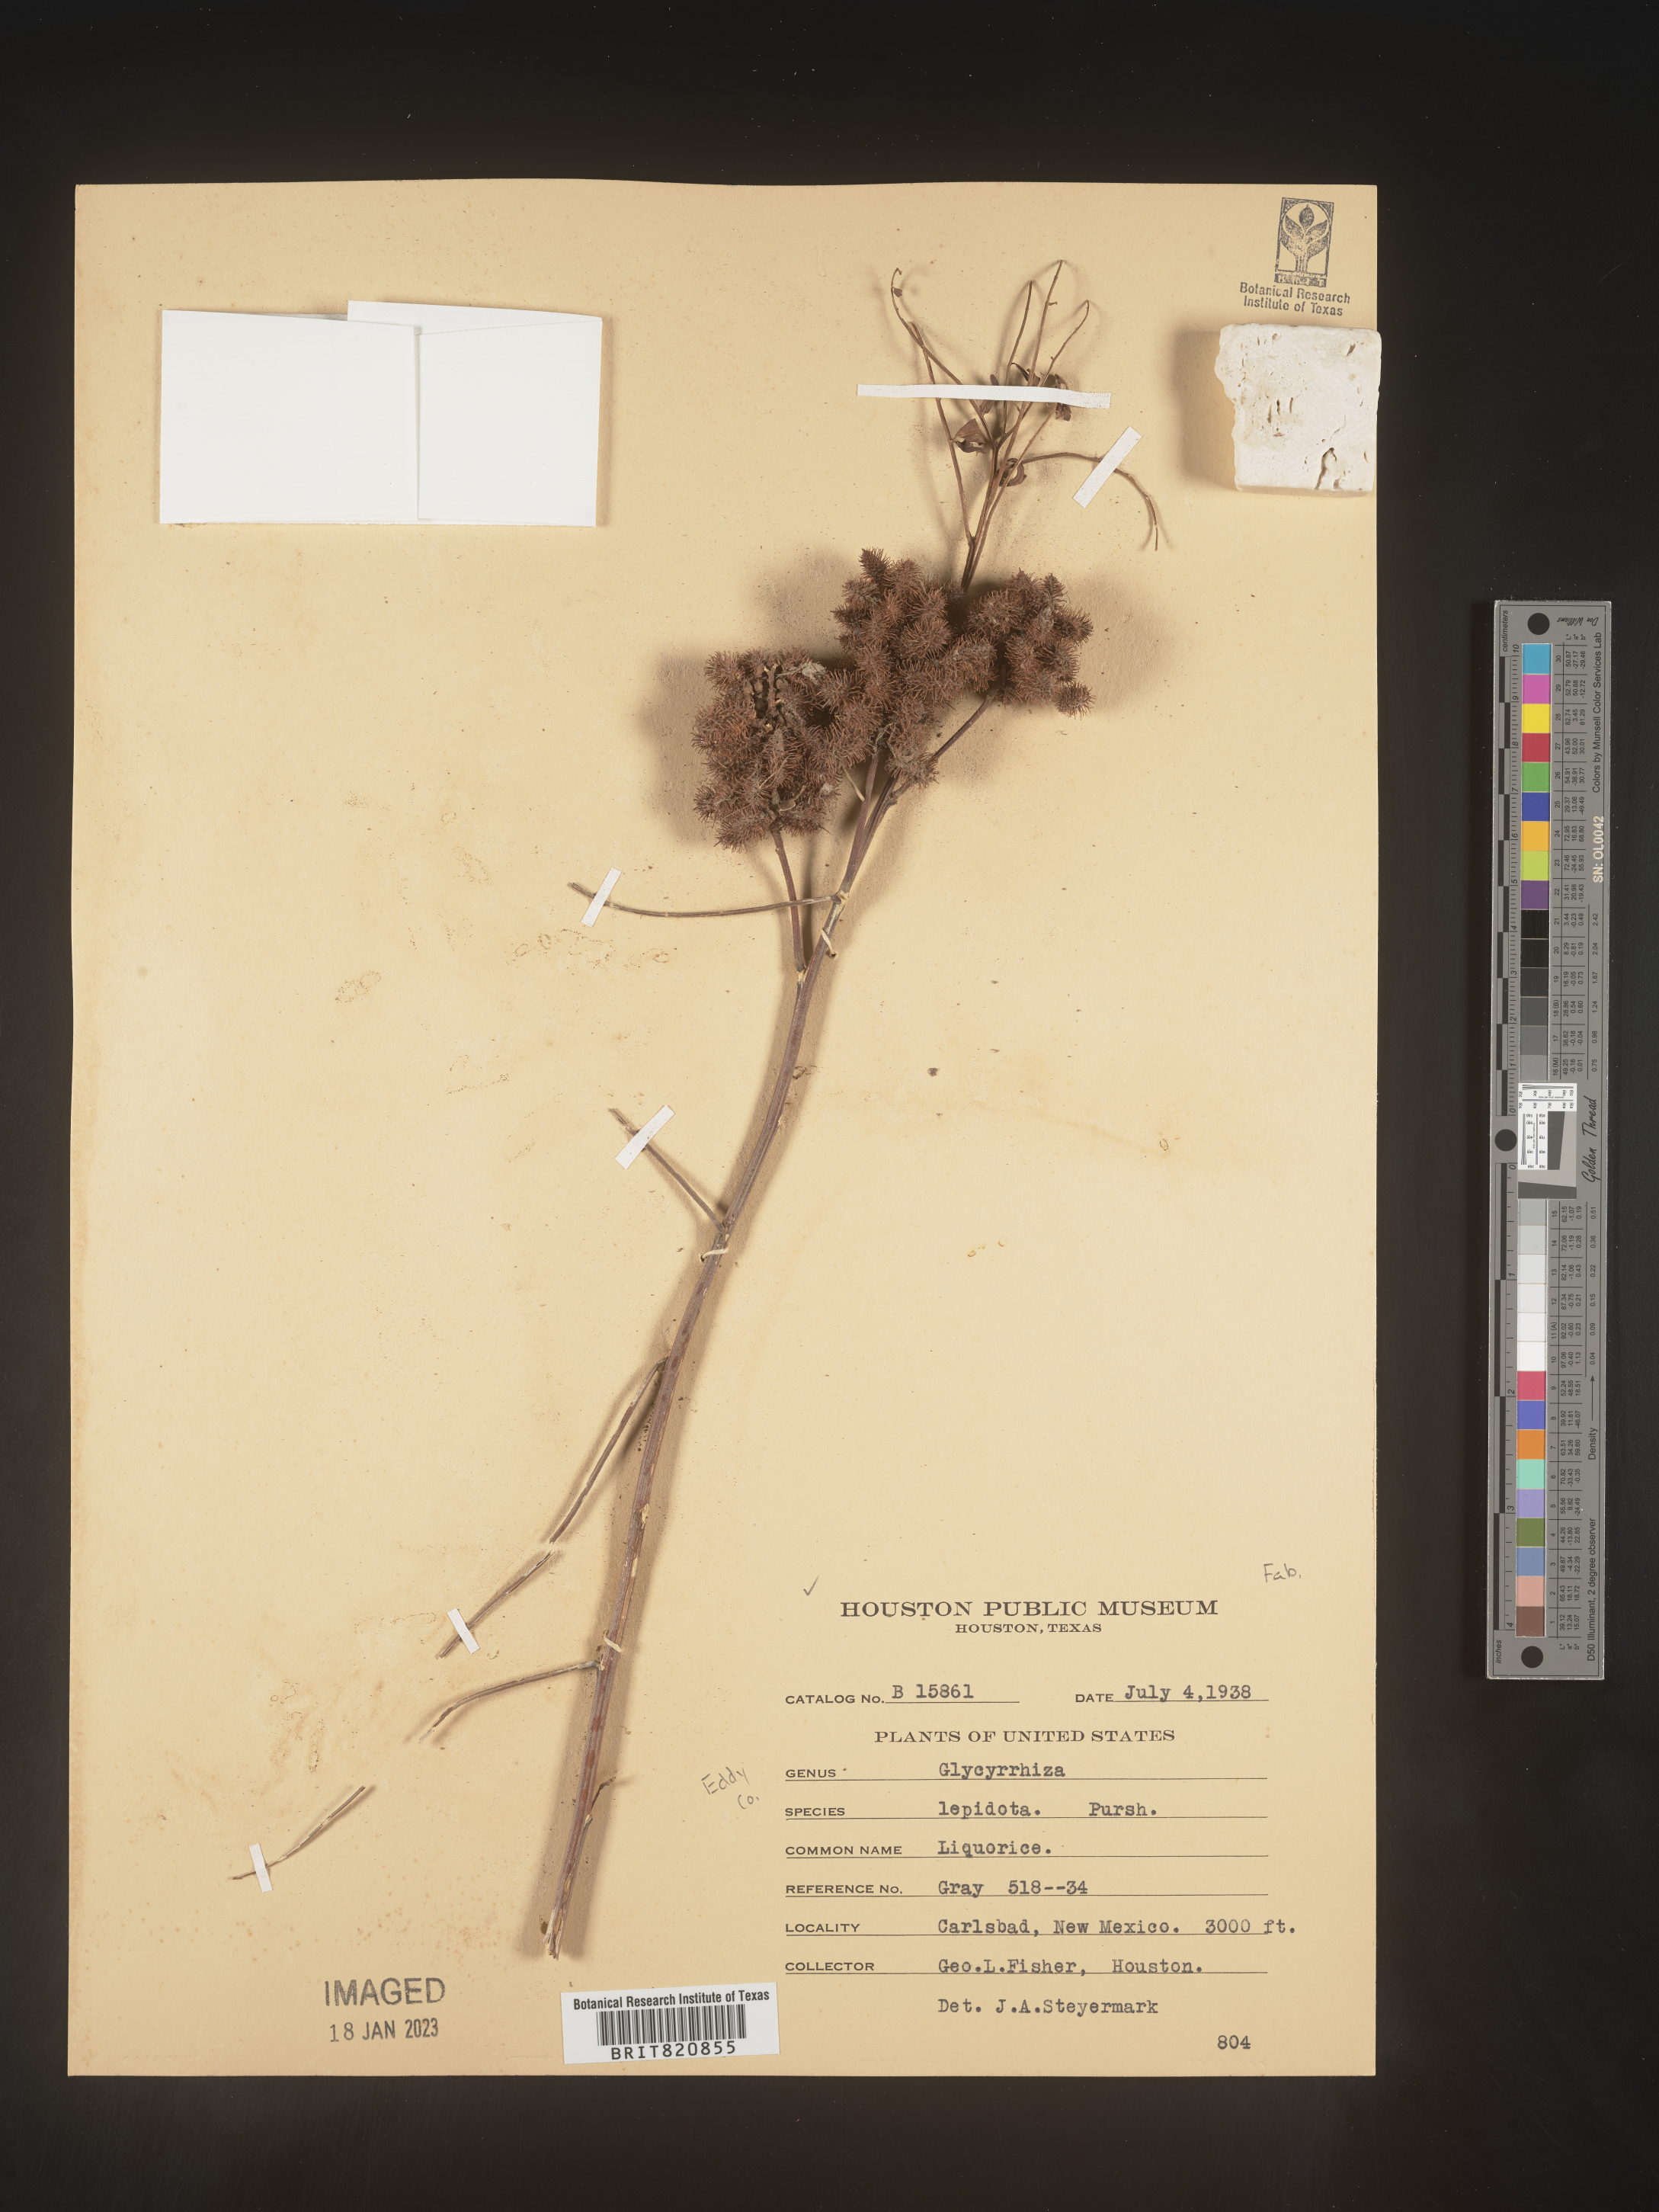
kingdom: Plantae
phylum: Tracheophyta
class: Magnoliopsida
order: Fabales
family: Fabaceae
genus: Glycyrrhiza
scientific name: Glycyrrhiza lepidota
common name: American liquorice
